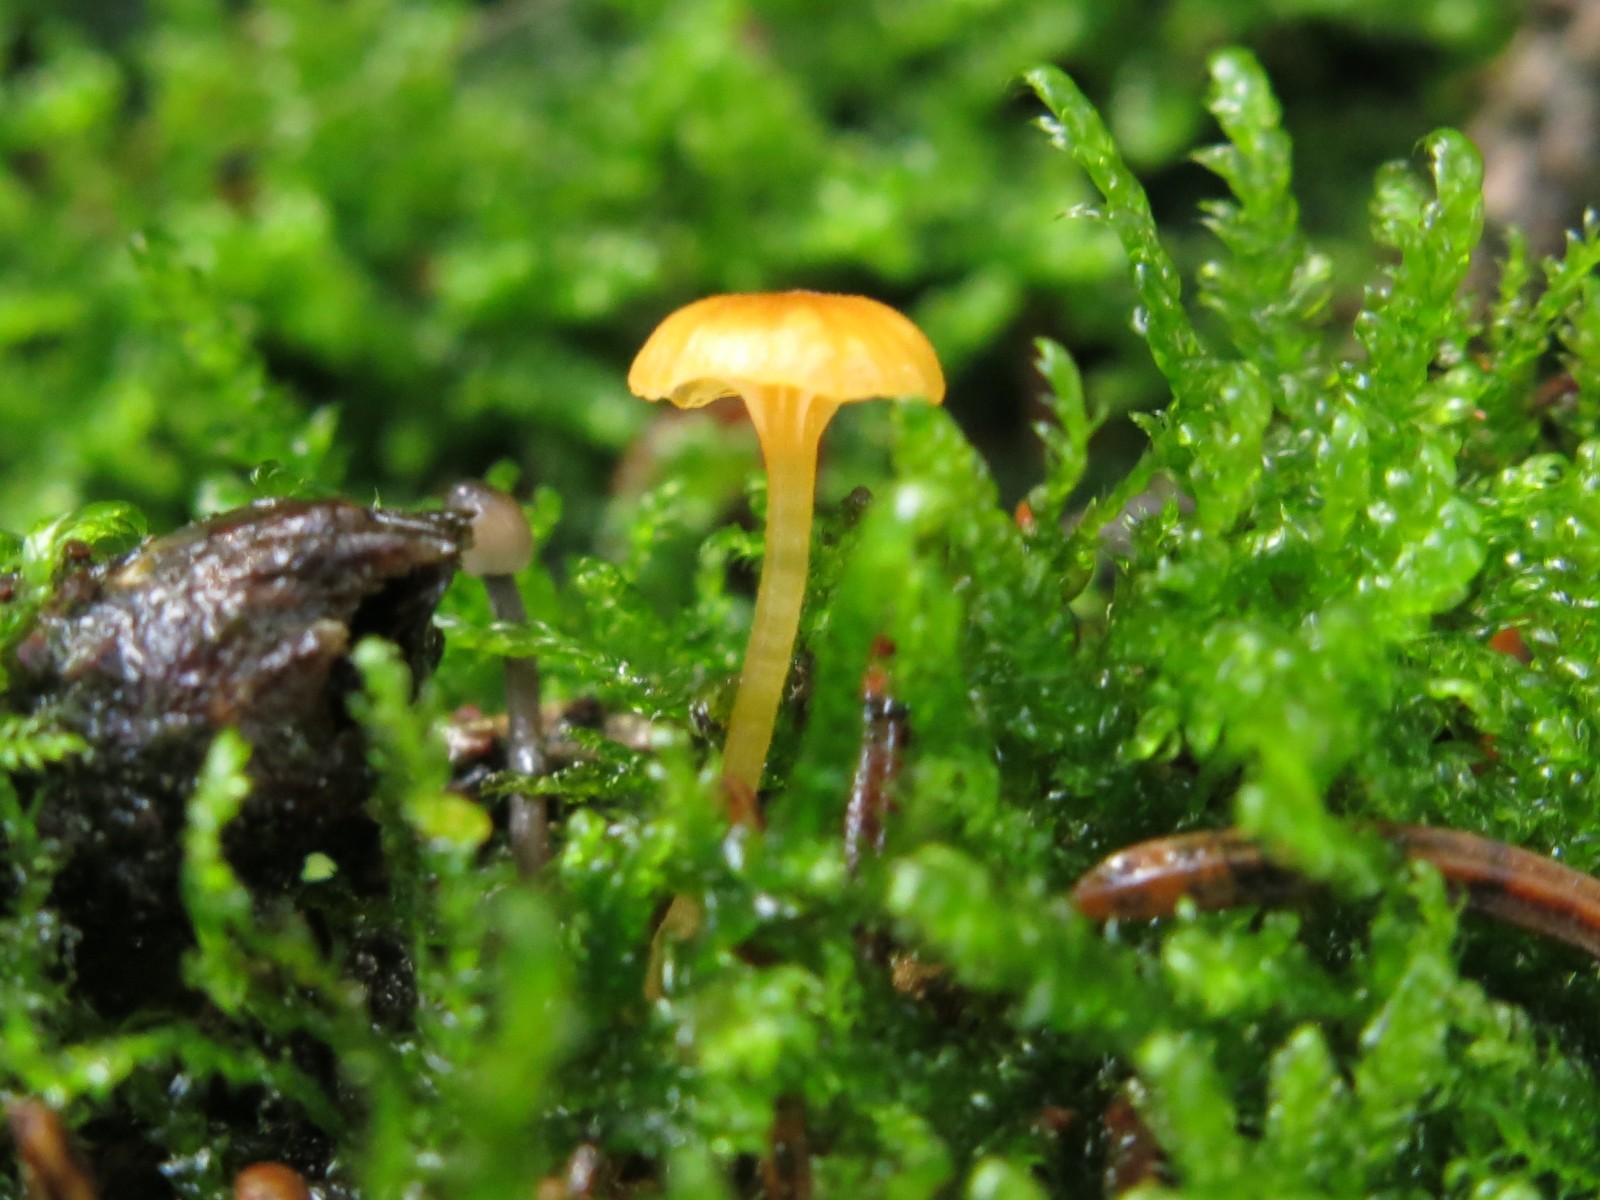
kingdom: Fungi
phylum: Basidiomycota
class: Agaricomycetes
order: Hymenochaetales
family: Rickenellaceae
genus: Rickenella
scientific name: Rickenella fibula
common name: orange mosnavlehat
